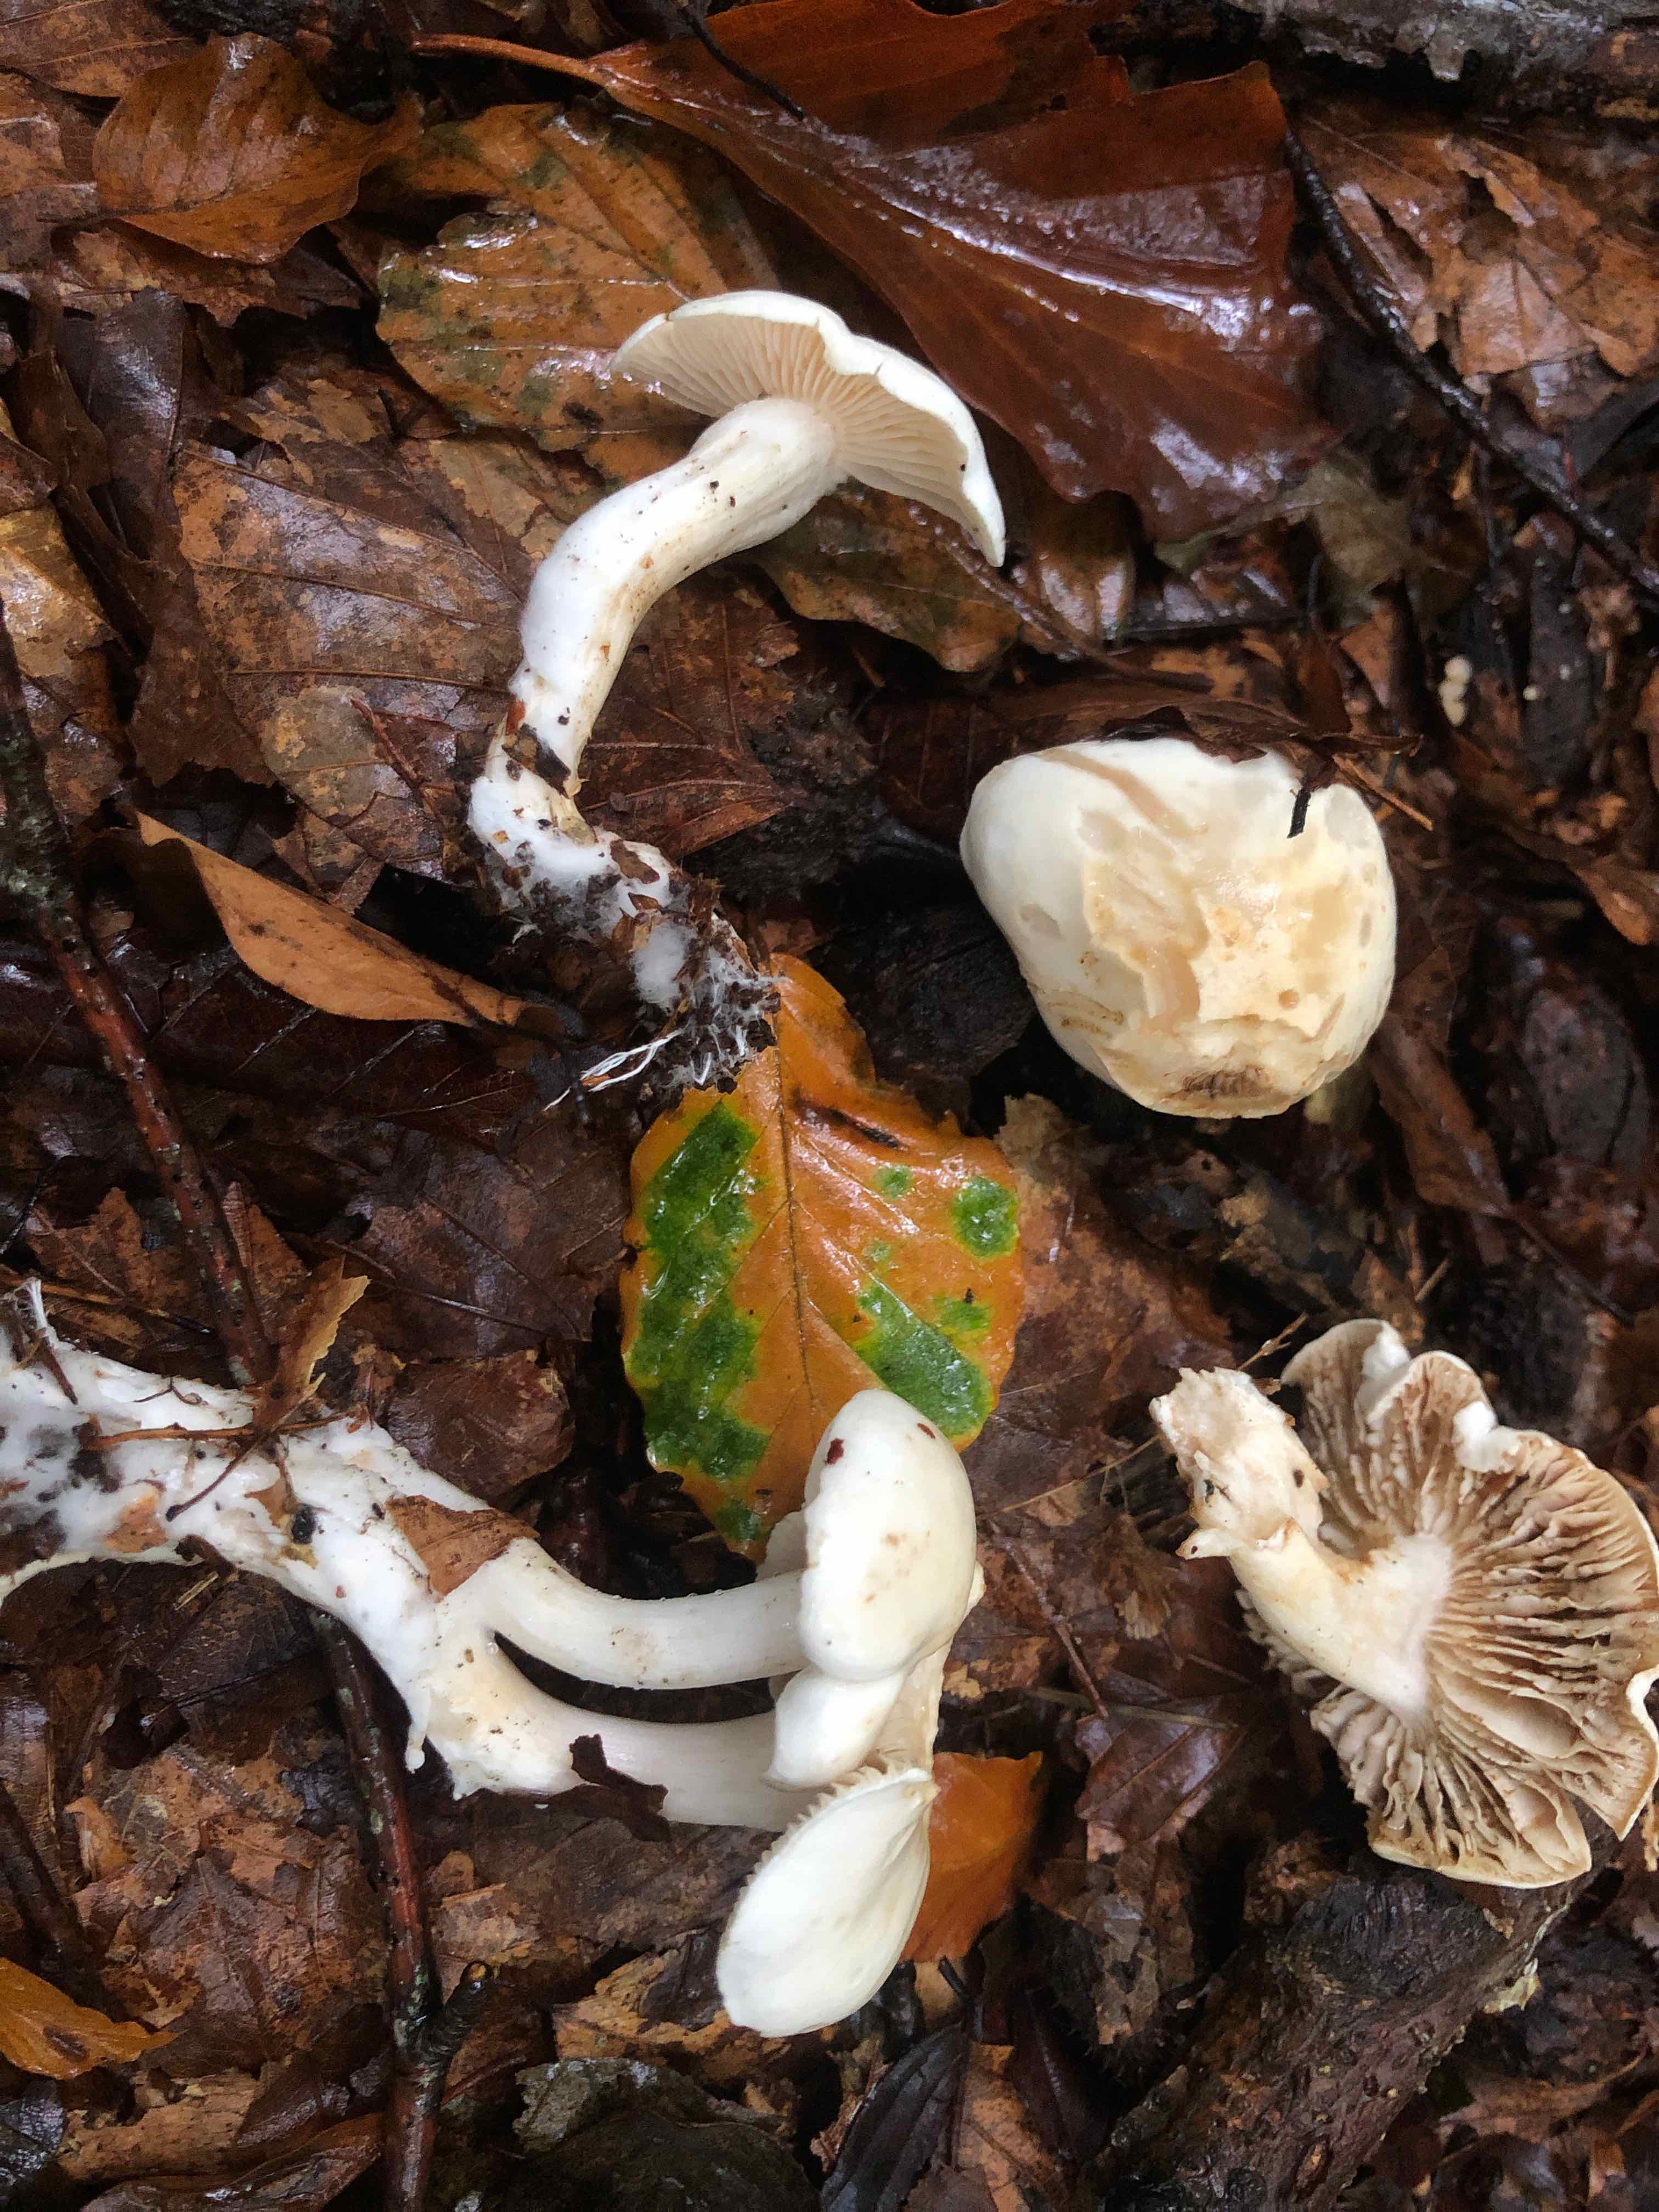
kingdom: Fungi
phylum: Basidiomycota
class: Agaricomycetes
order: Agaricales
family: Tricholomataceae
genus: Tricholoma
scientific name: Tricholoma lascivum
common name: stinkende ridderhat
